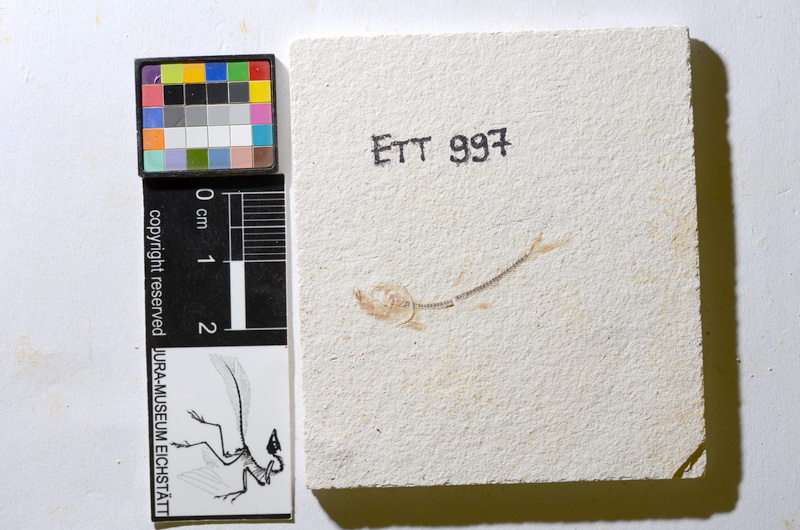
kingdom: Animalia
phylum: Chordata
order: Salmoniformes
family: Orthogonikleithridae
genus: Orthogonikleithrus
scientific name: Orthogonikleithrus hoelli
